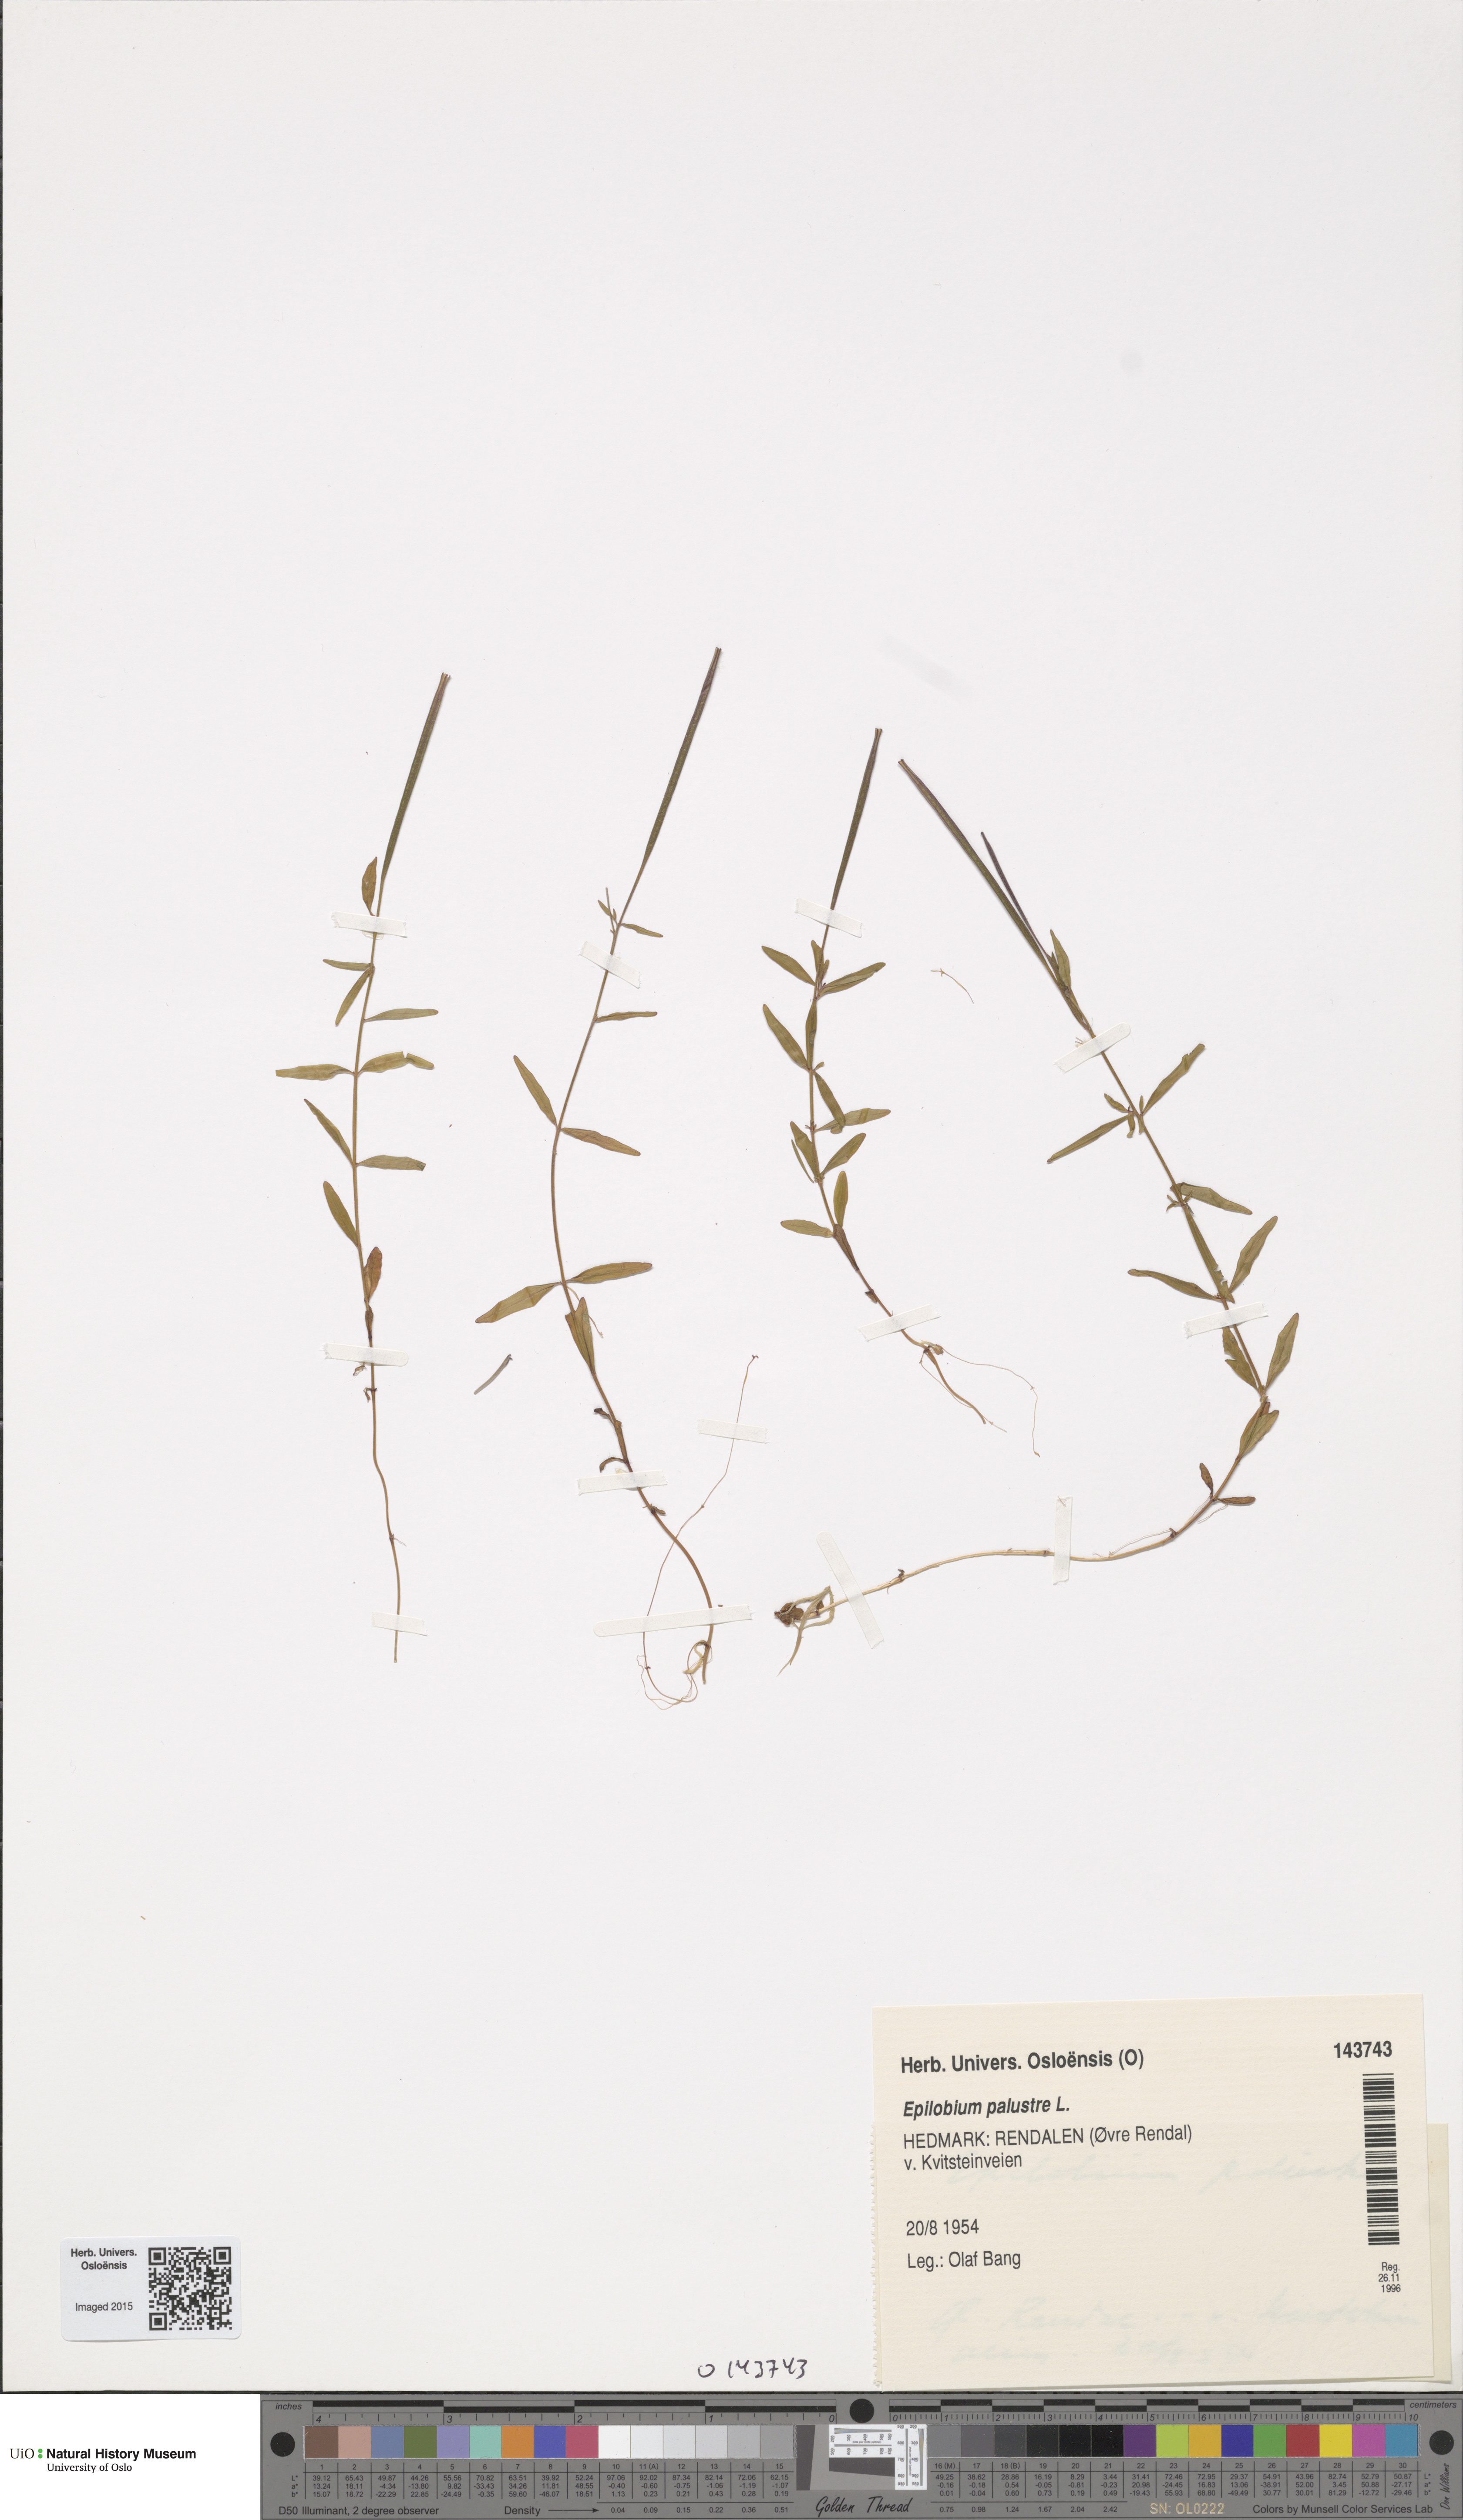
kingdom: Plantae
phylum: Tracheophyta
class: Magnoliopsida
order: Myrtales
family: Onagraceae
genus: Epilobium
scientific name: Epilobium palustre
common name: Marsh willowherb
